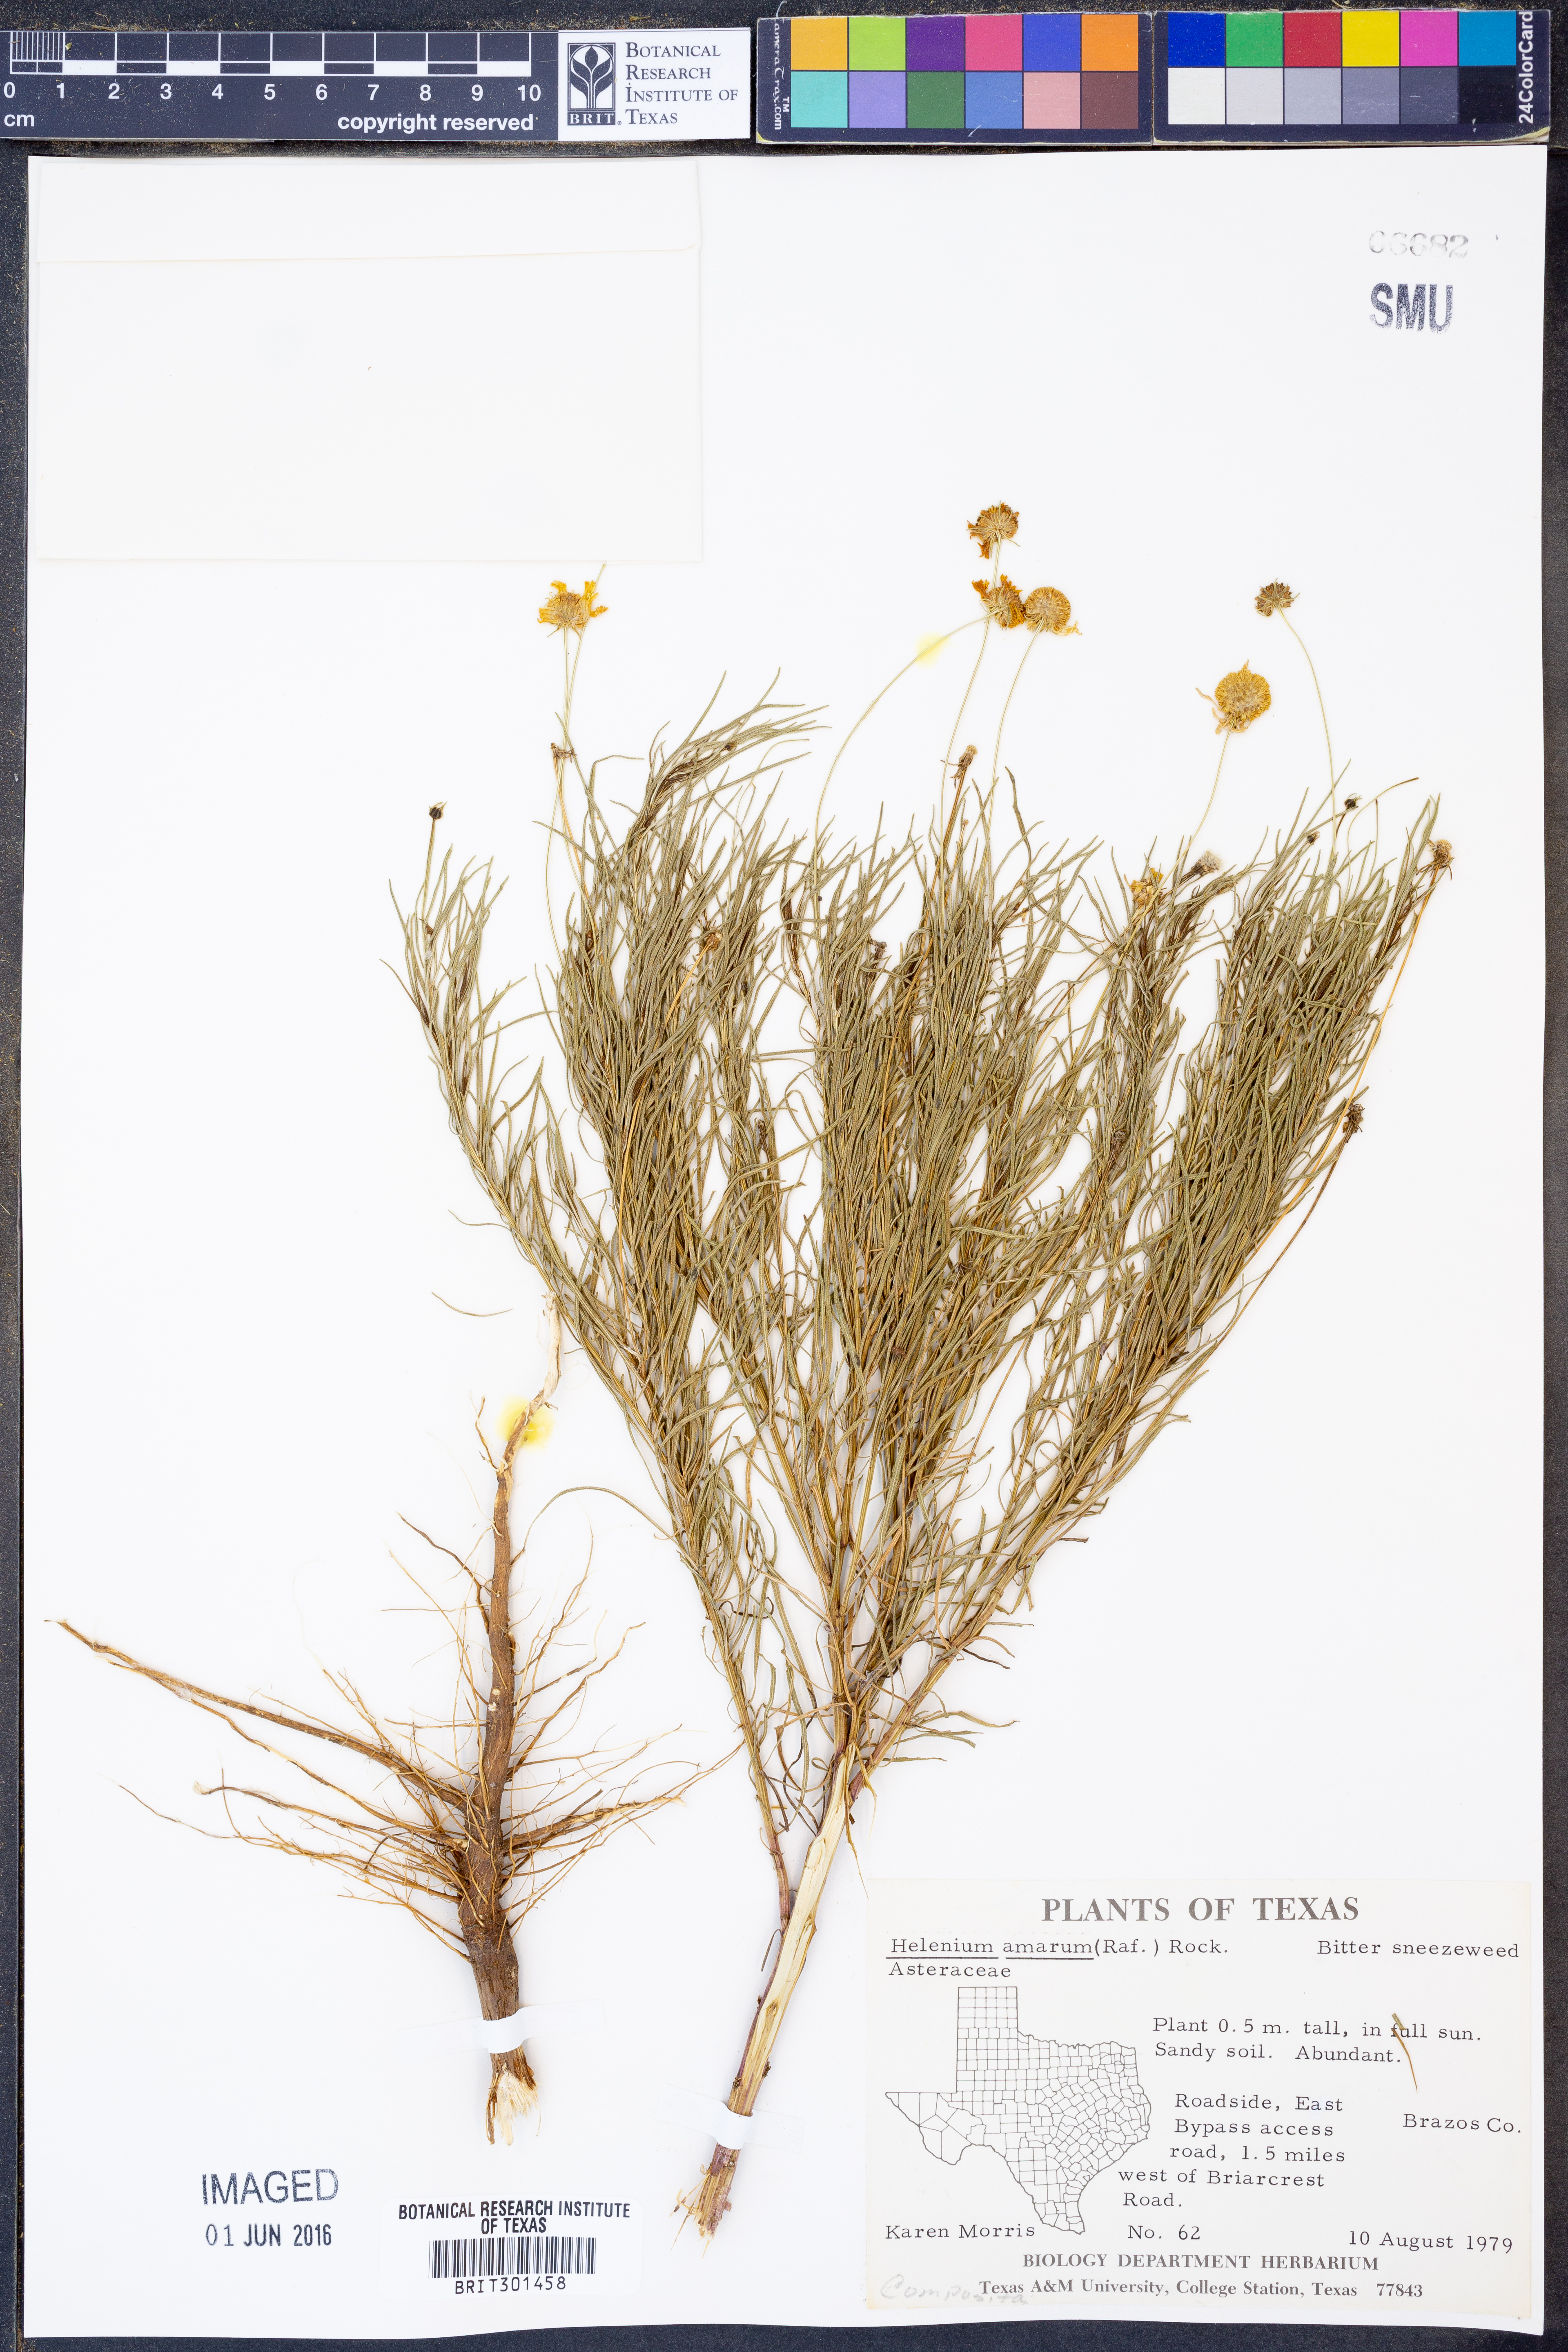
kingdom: Plantae
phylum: Tracheophyta
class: Magnoliopsida
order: Asterales
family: Asteraceae
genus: Helenium
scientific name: Helenium amarum
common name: Bitter sneezeweed
